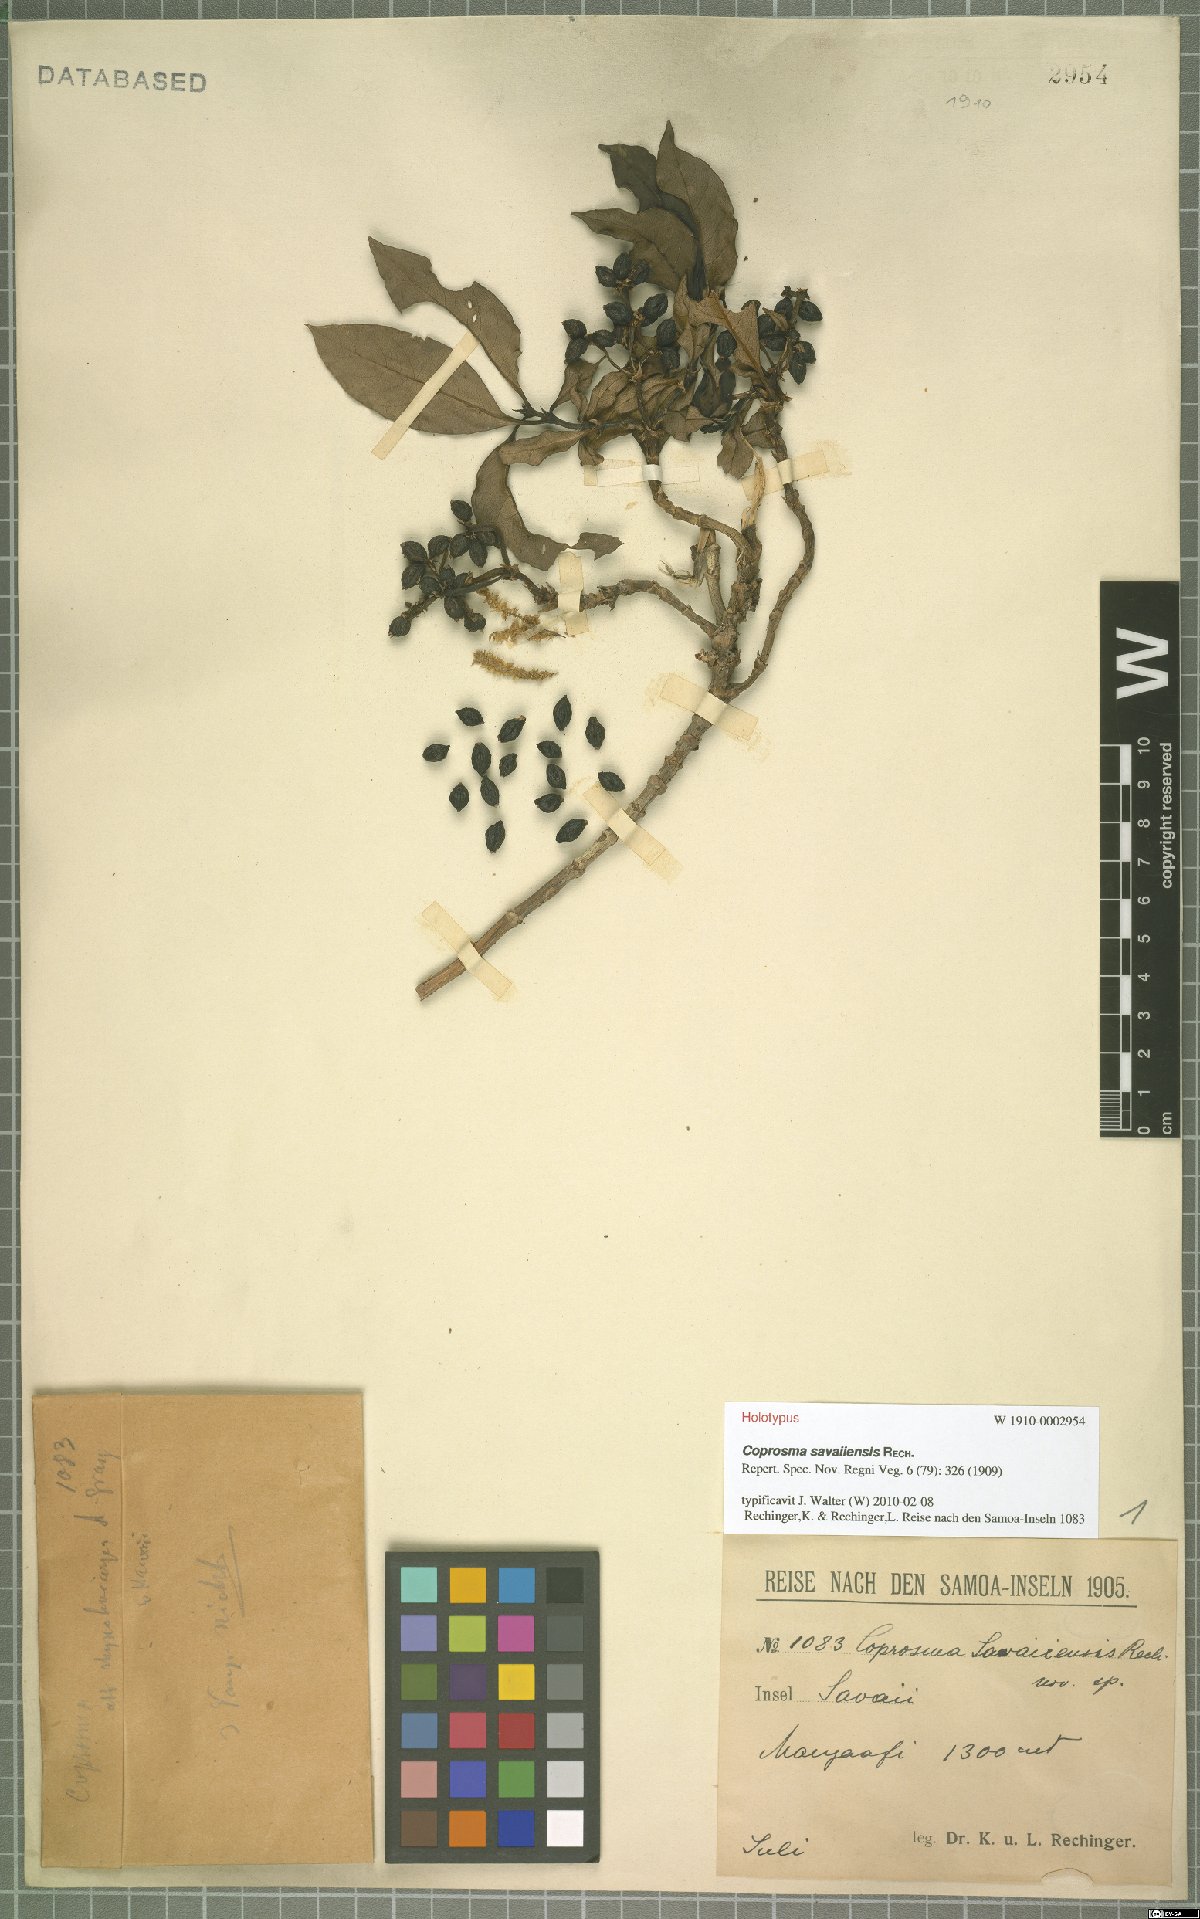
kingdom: Plantae
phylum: Tracheophyta
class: Magnoliopsida
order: Gentianales
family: Rubiaceae
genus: Coprosma
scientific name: Coprosma savaiiensis
